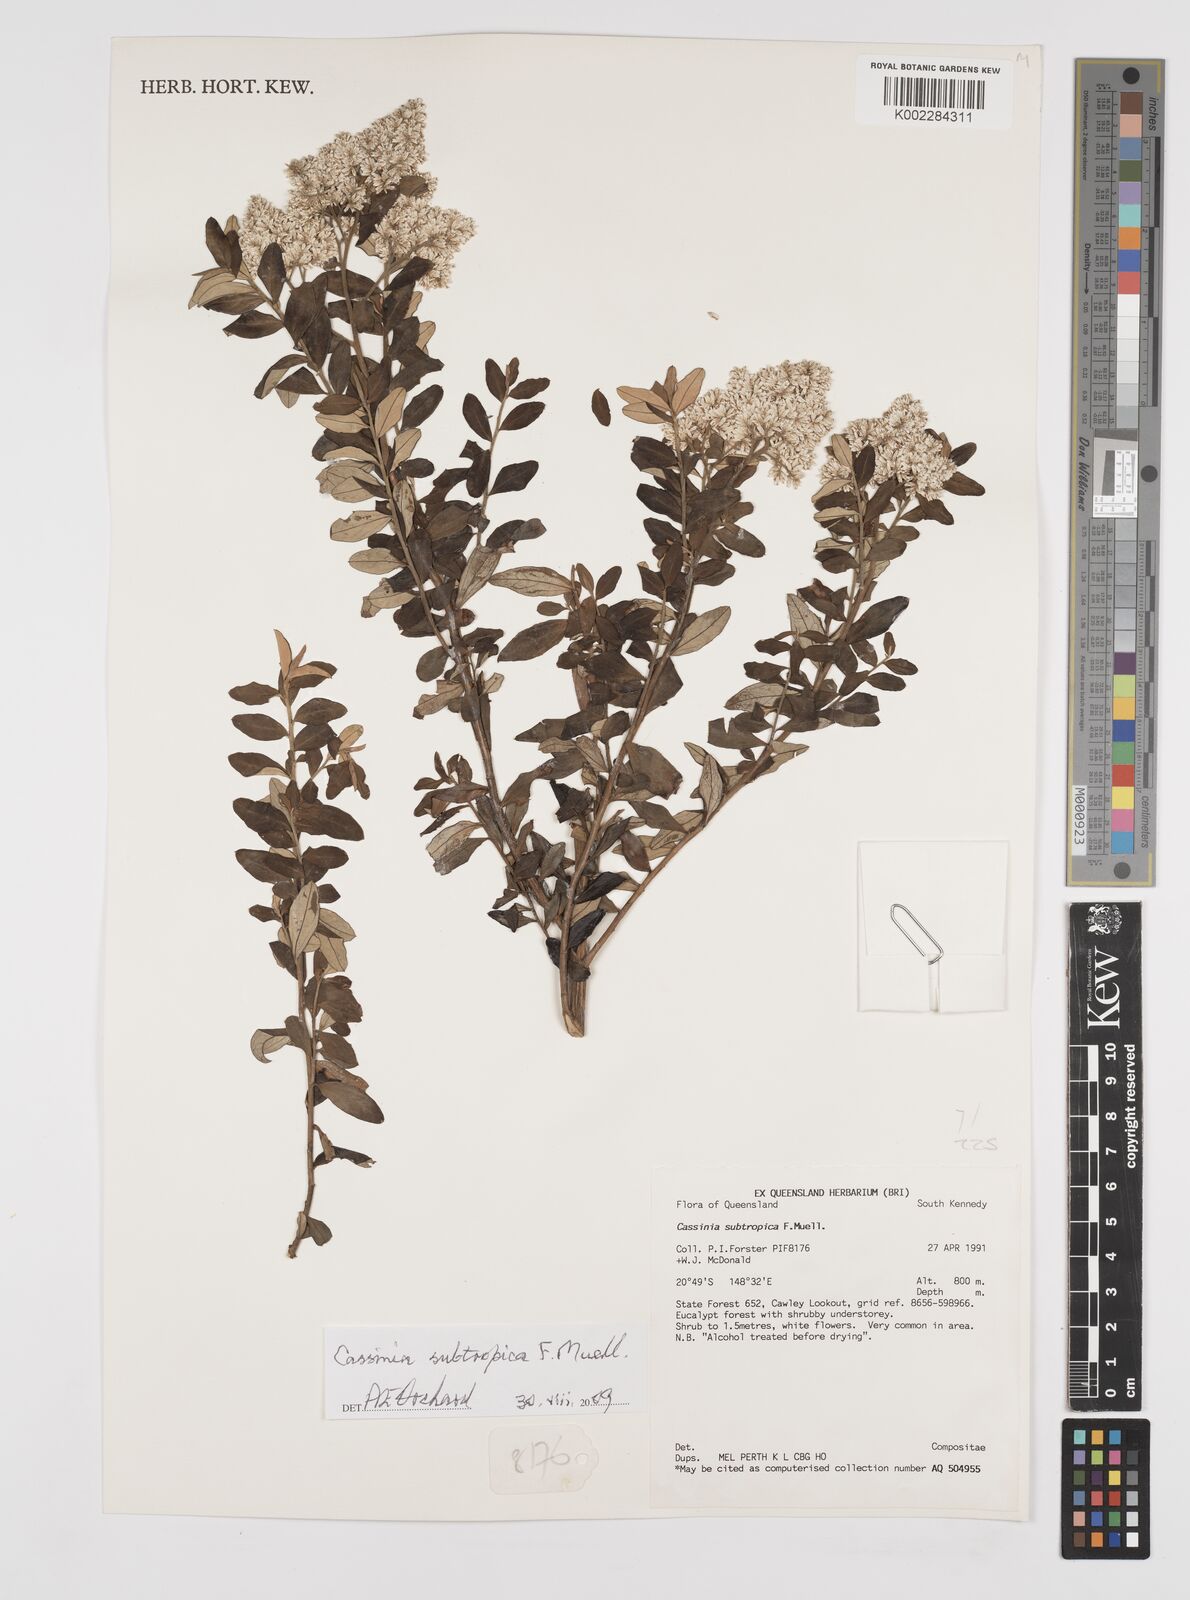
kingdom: Plantae
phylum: Tracheophyta
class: Magnoliopsida
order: Asterales
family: Asteraceae
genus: Cassinia
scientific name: Cassinia subtropica
